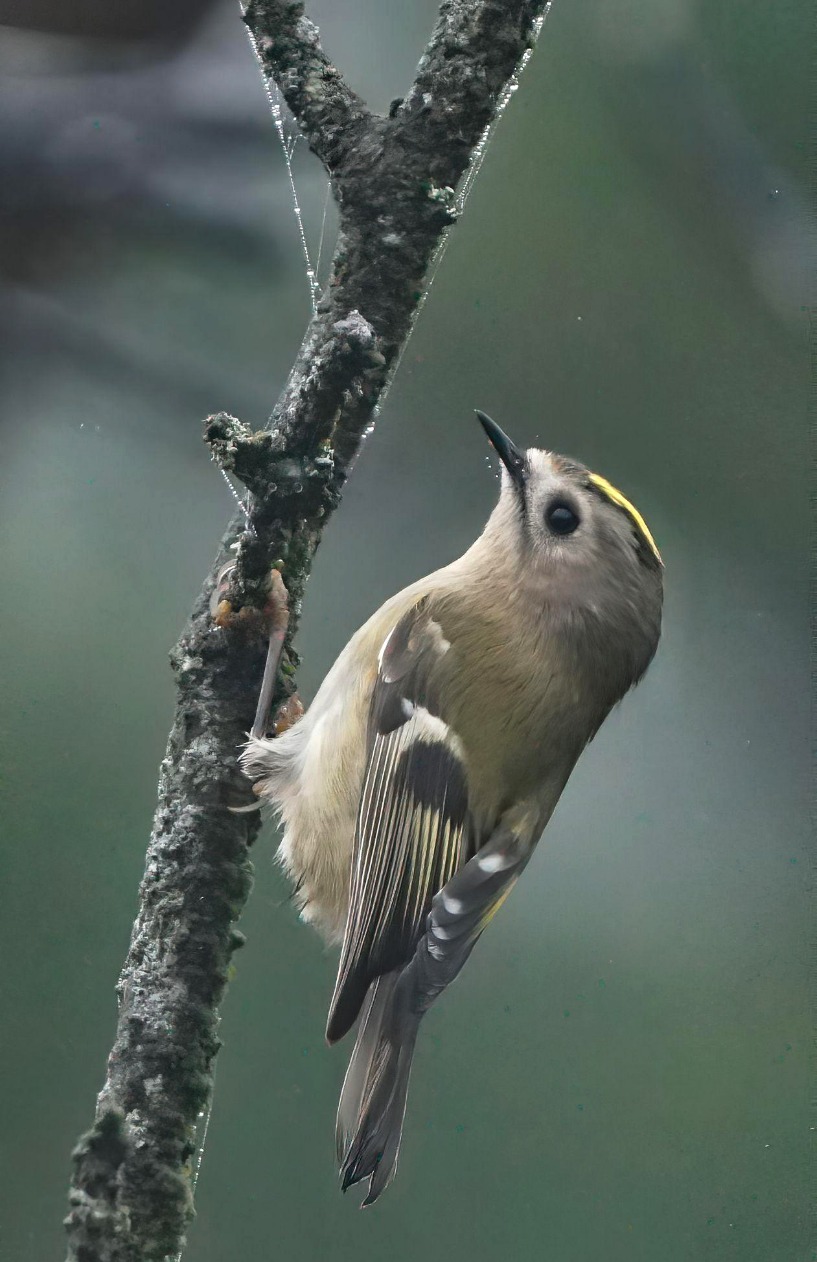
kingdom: Animalia
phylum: Chordata
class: Aves
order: Passeriformes
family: Regulidae
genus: Regulus
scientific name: Regulus regulus
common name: Fuglekonge
